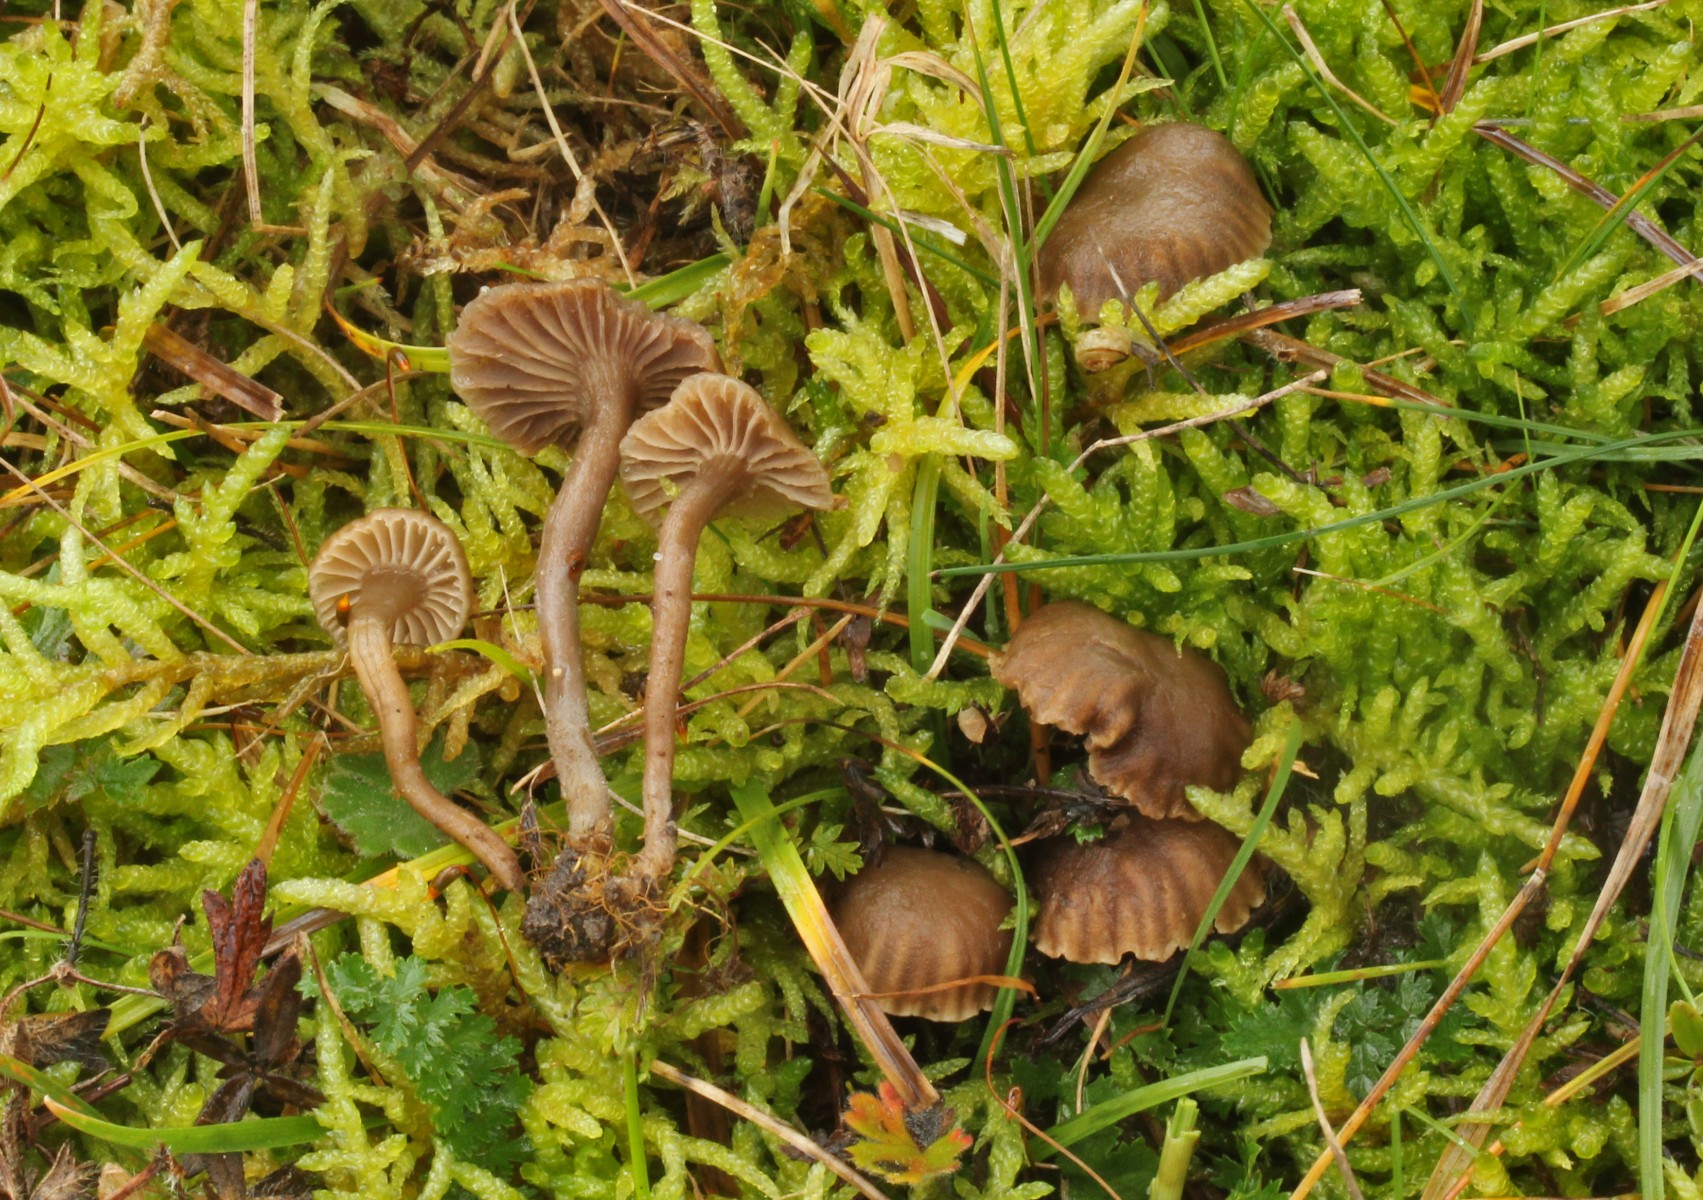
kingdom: Fungi
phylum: Basidiomycota
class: Agaricomycetes
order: Agaricales
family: Clavariaceae
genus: Hodophilus
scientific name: Hodophilus
